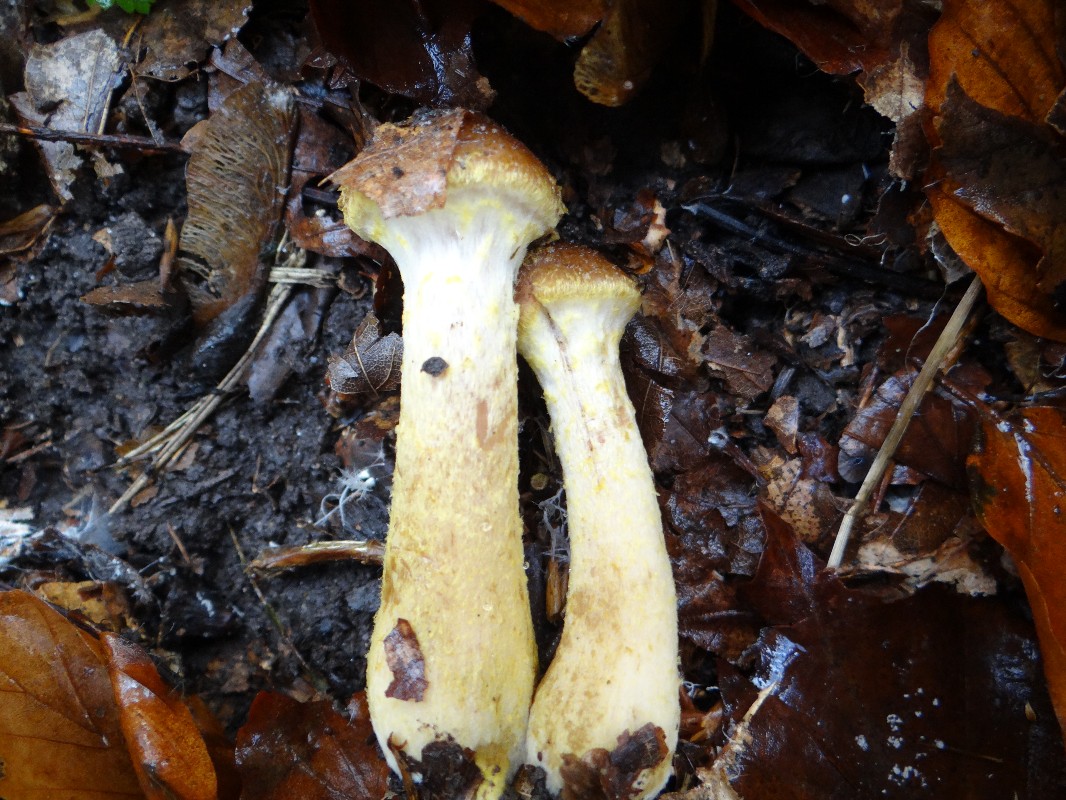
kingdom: Fungi
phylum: Basidiomycota
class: Agaricomycetes
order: Agaricales
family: Physalacriaceae
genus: Armillaria
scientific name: Armillaria lutea
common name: køllestokket honningsvamp
